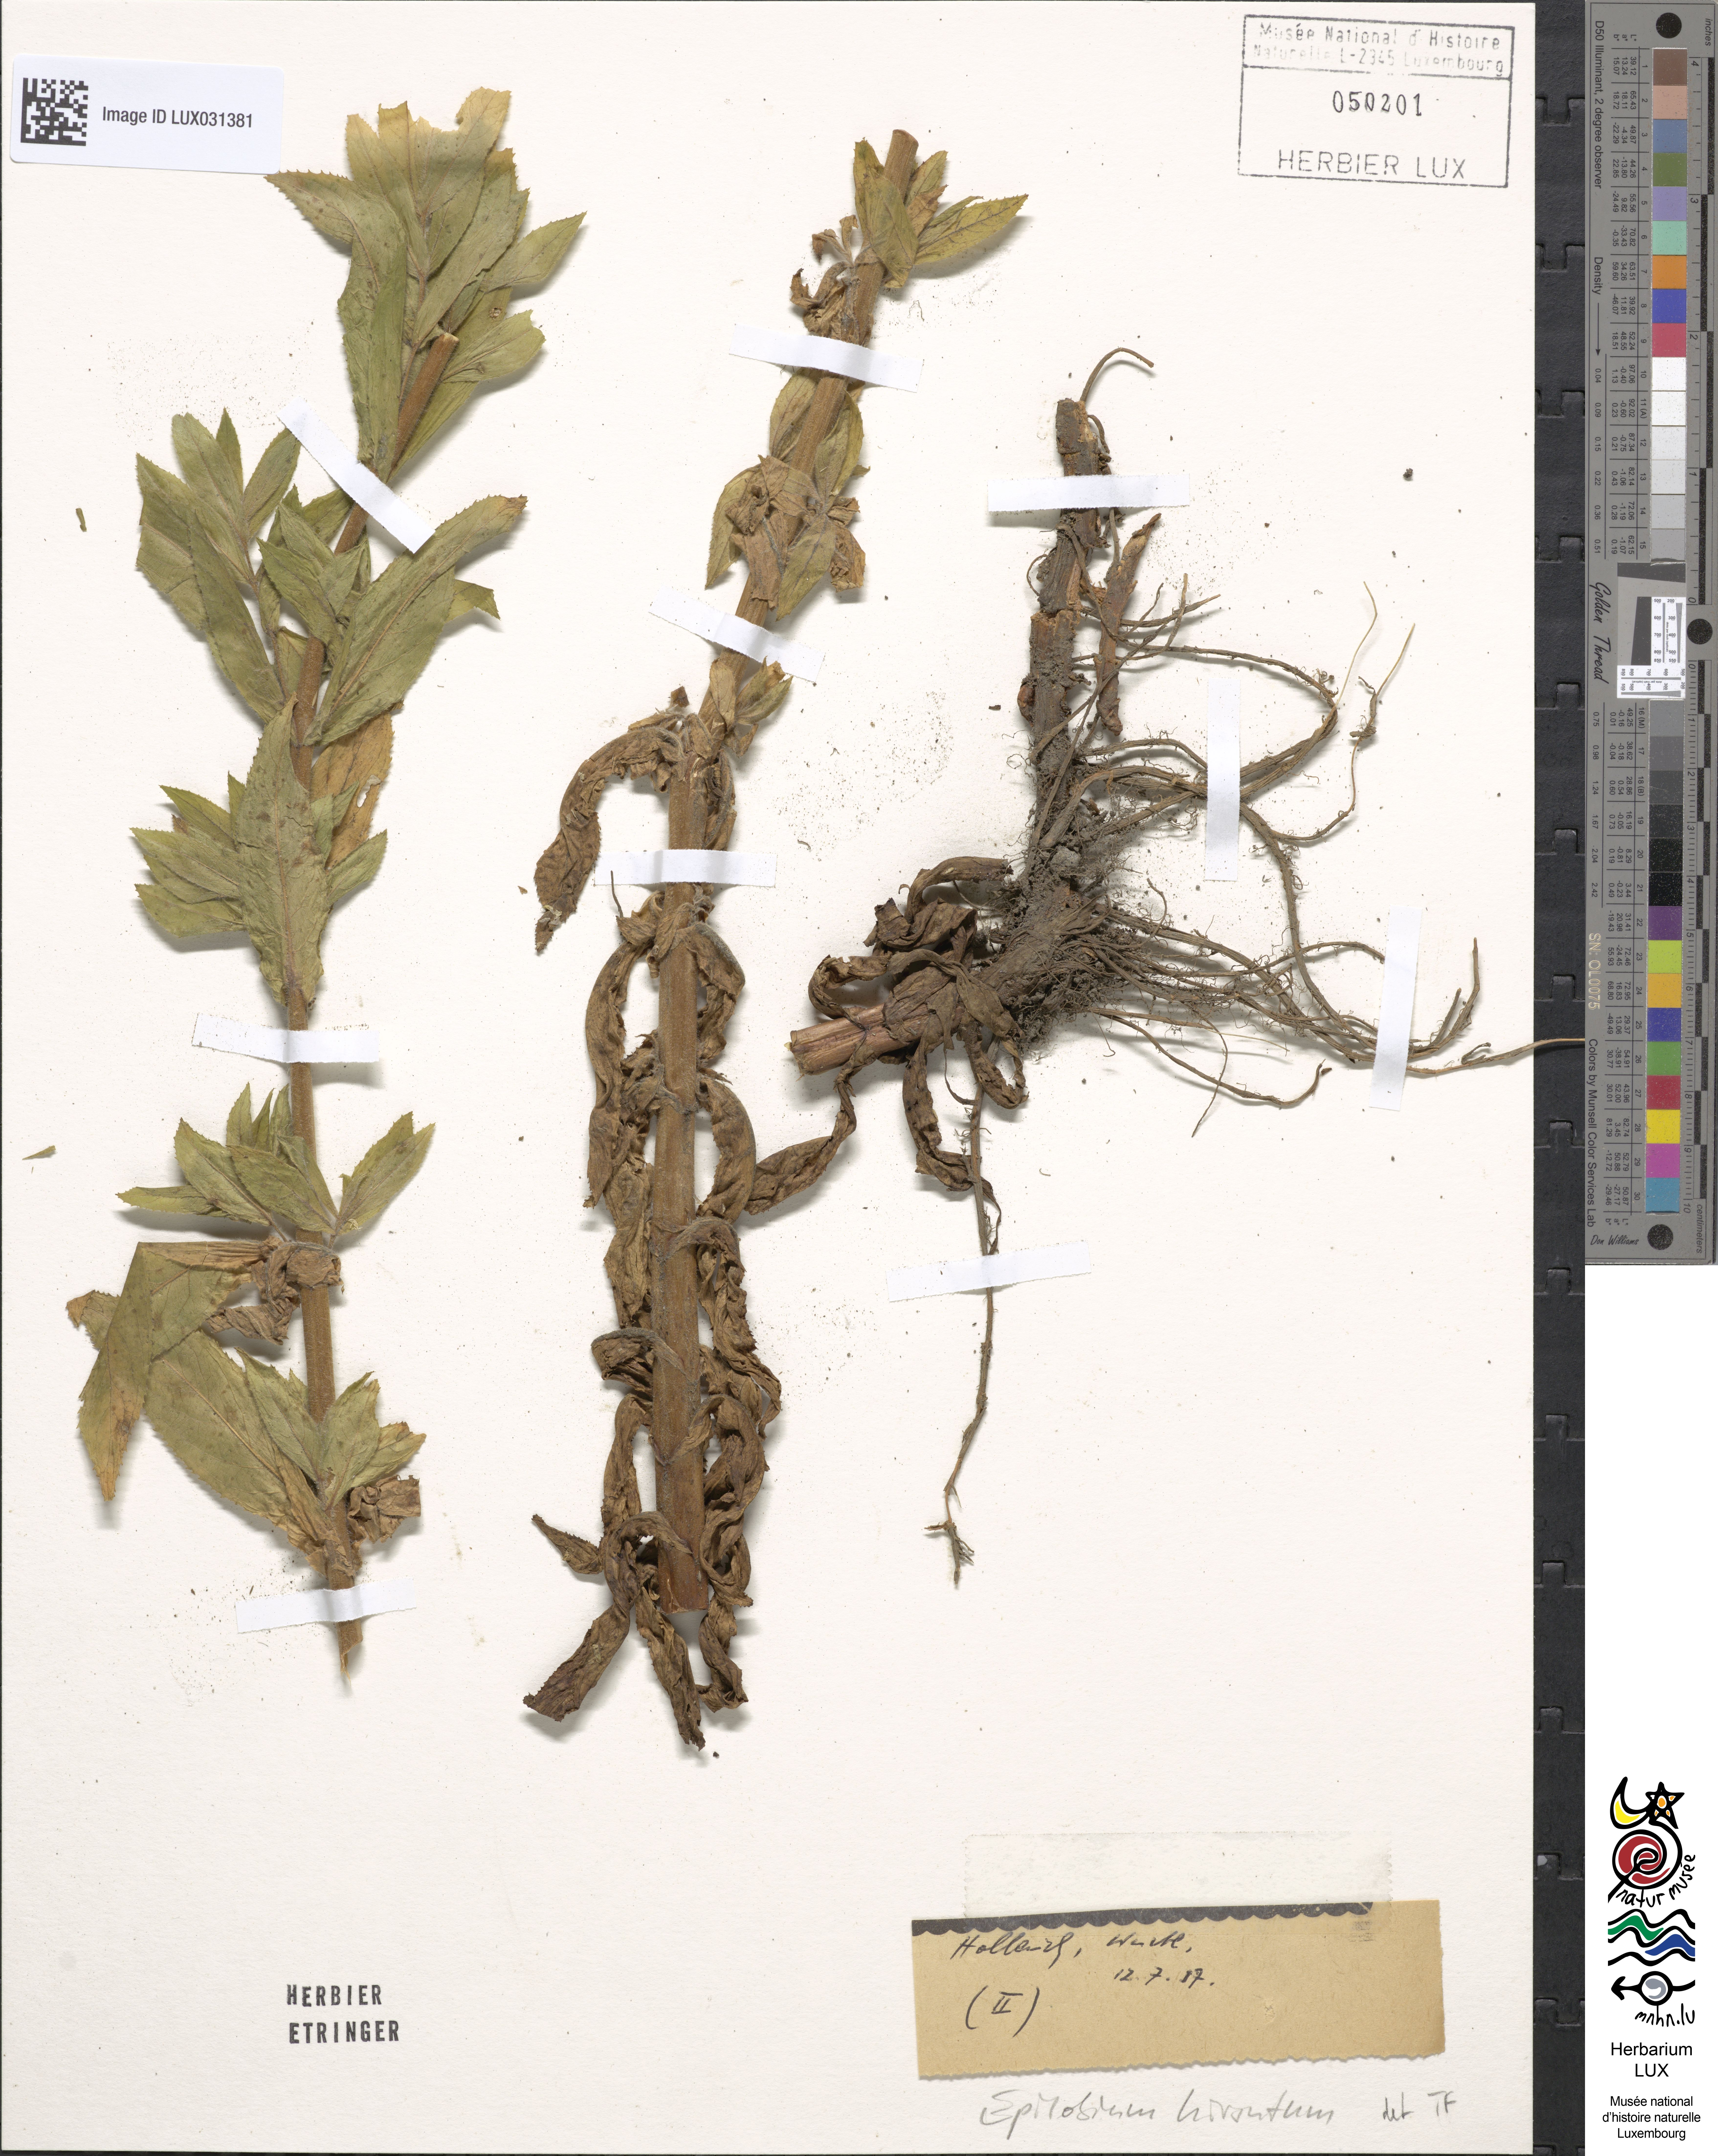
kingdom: Plantae
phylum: Tracheophyta
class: Magnoliopsida
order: Myrtales
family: Onagraceae
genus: Epilobium
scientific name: Epilobium hirsutum
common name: Great willowherb
